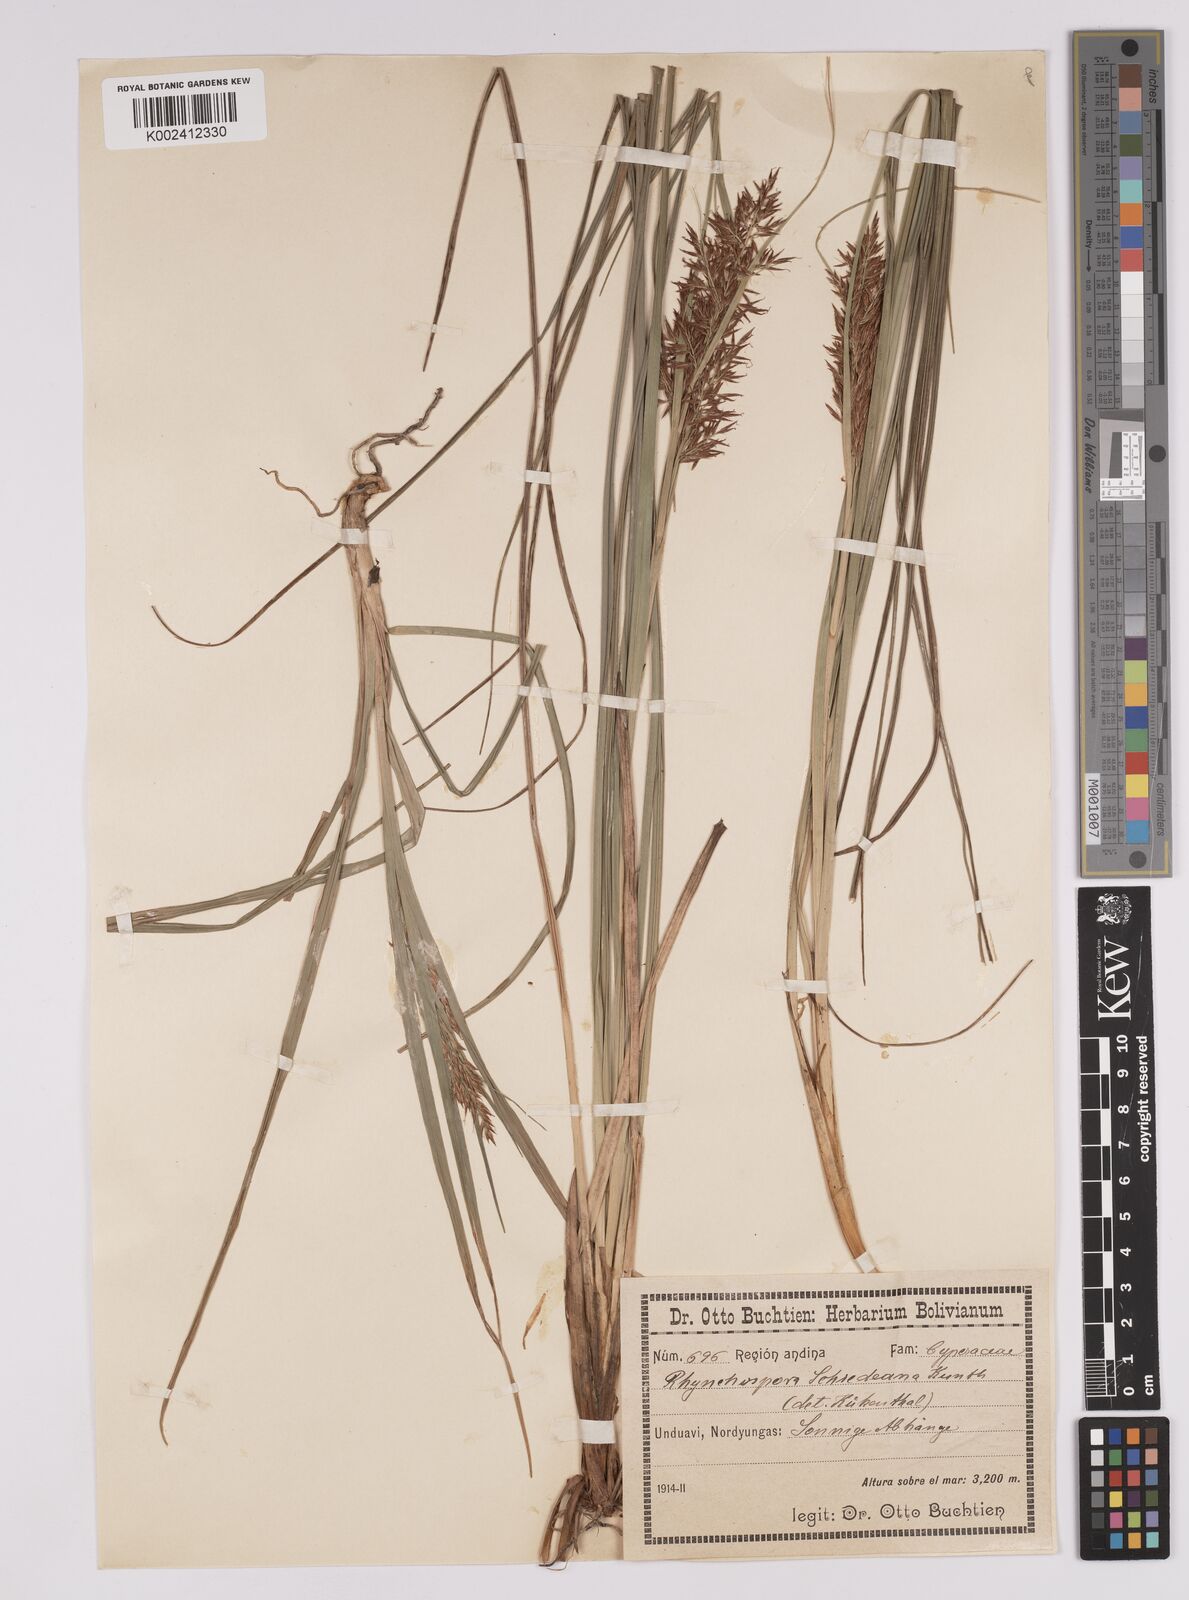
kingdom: Plantae
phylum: Tracheophyta
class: Liliopsida
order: Poales
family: Cyperaceae
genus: Rhynchospora
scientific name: Rhynchospora schiedeana
